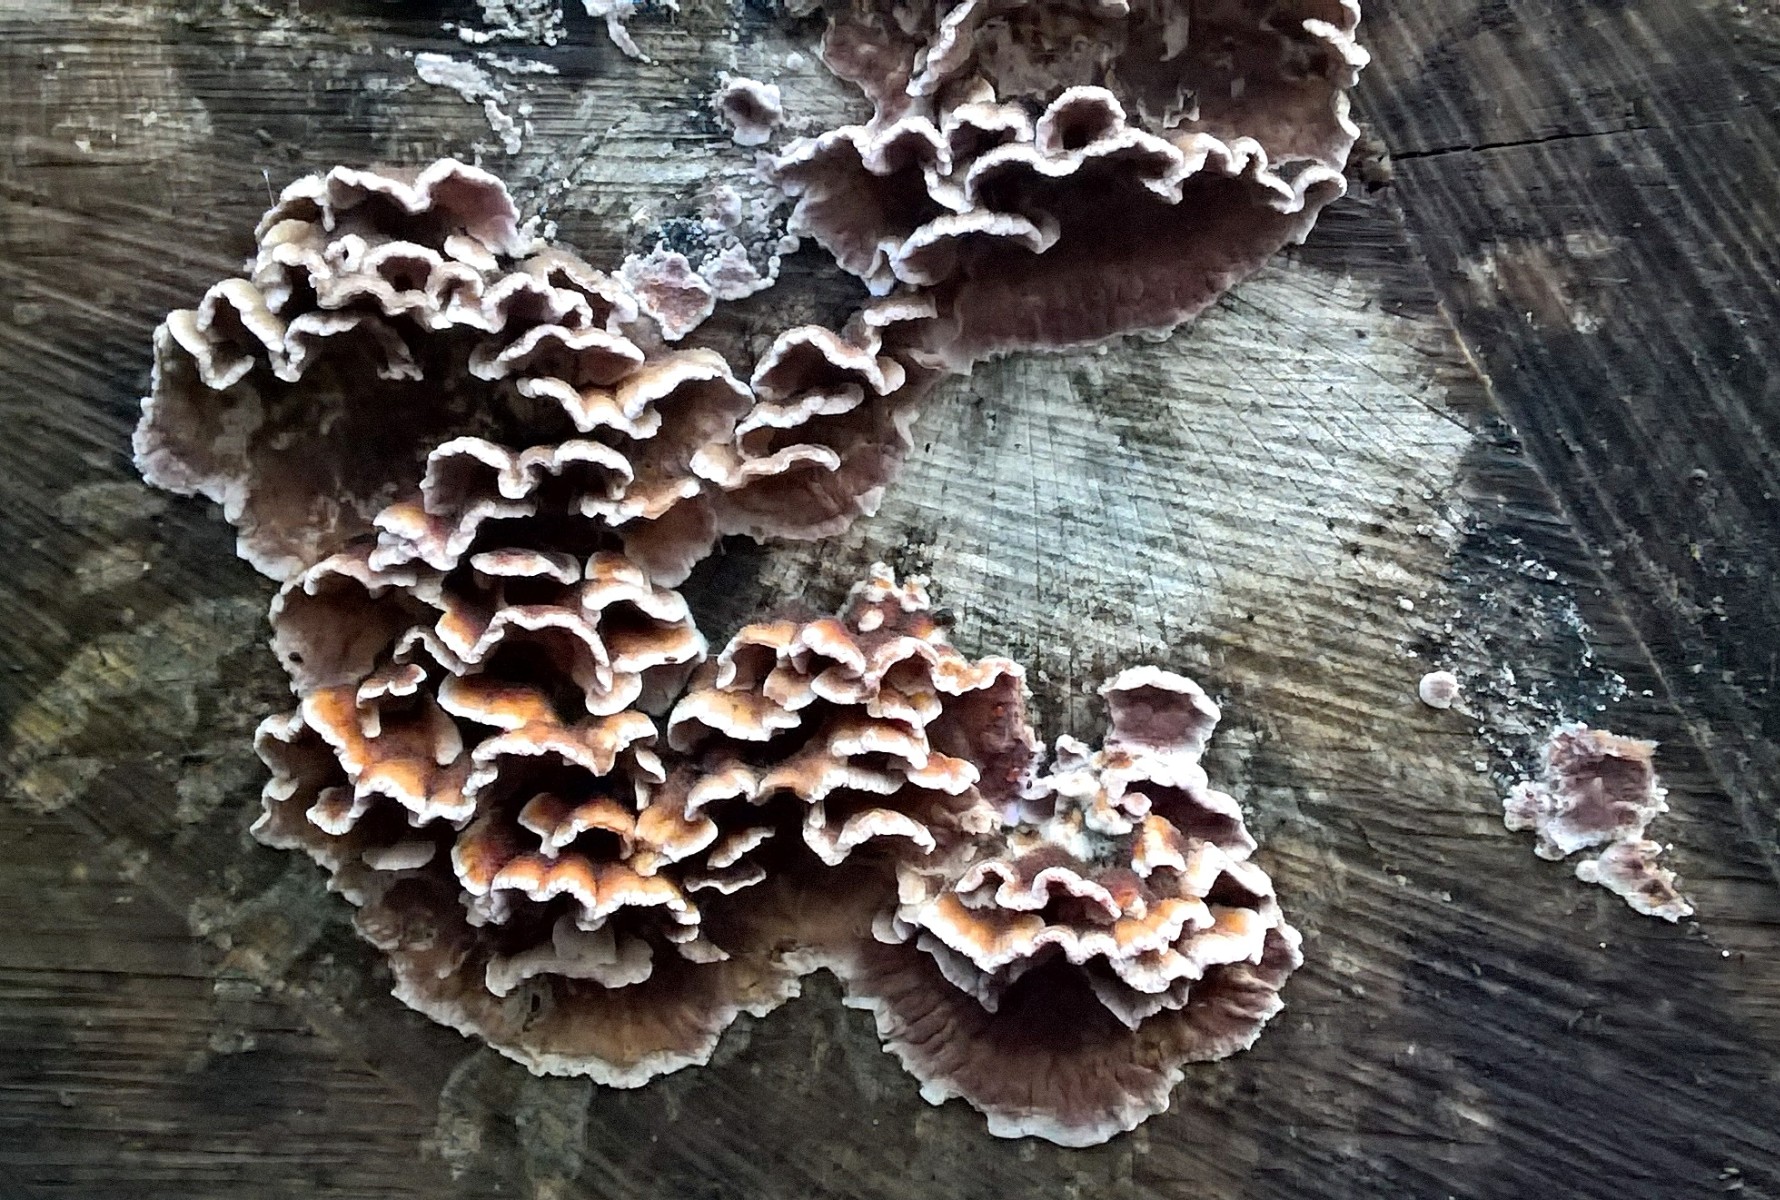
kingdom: Fungi
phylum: Basidiomycota
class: Agaricomycetes
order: Agaricales
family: Cyphellaceae
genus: Chondrostereum
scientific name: Chondrostereum purpureum
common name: purpurlædersvamp
